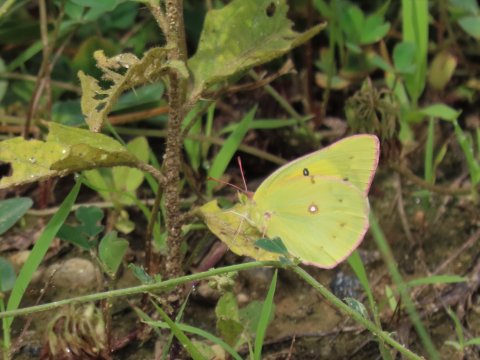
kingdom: Animalia
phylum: Arthropoda
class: Insecta
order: Lepidoptera
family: Pieridae
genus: Colias
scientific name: Colias eurytheme
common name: Orange Sulphur
